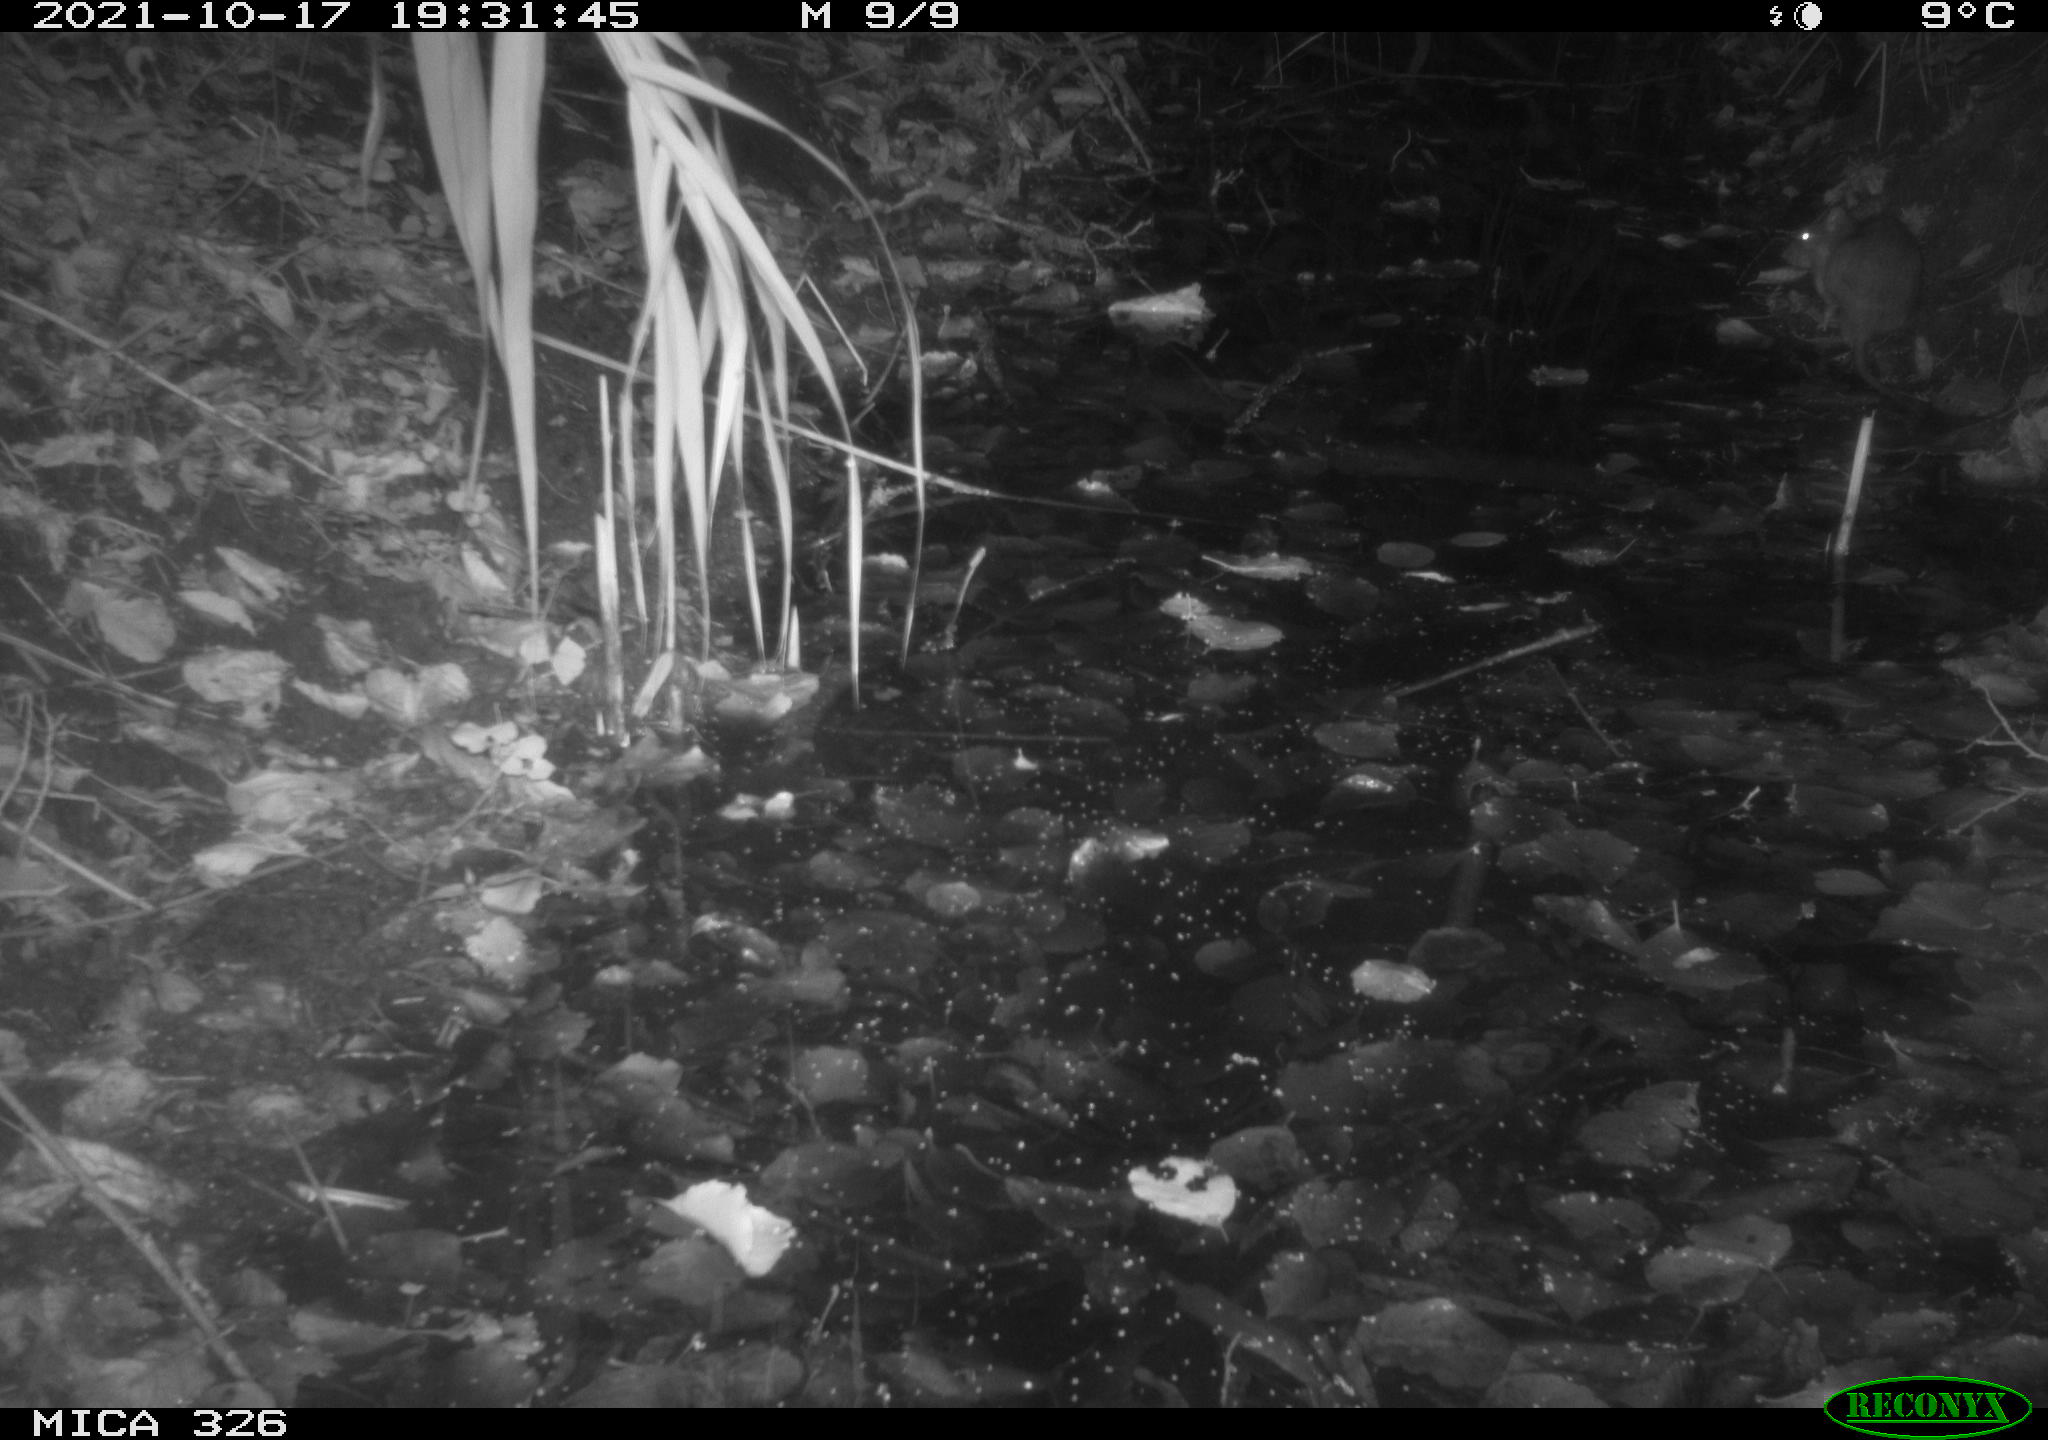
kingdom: Animalia
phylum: Chordata
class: Mammalia
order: Rodentia
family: Muridae
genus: Rattus
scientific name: Rattus norvegicus
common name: Brown rat
